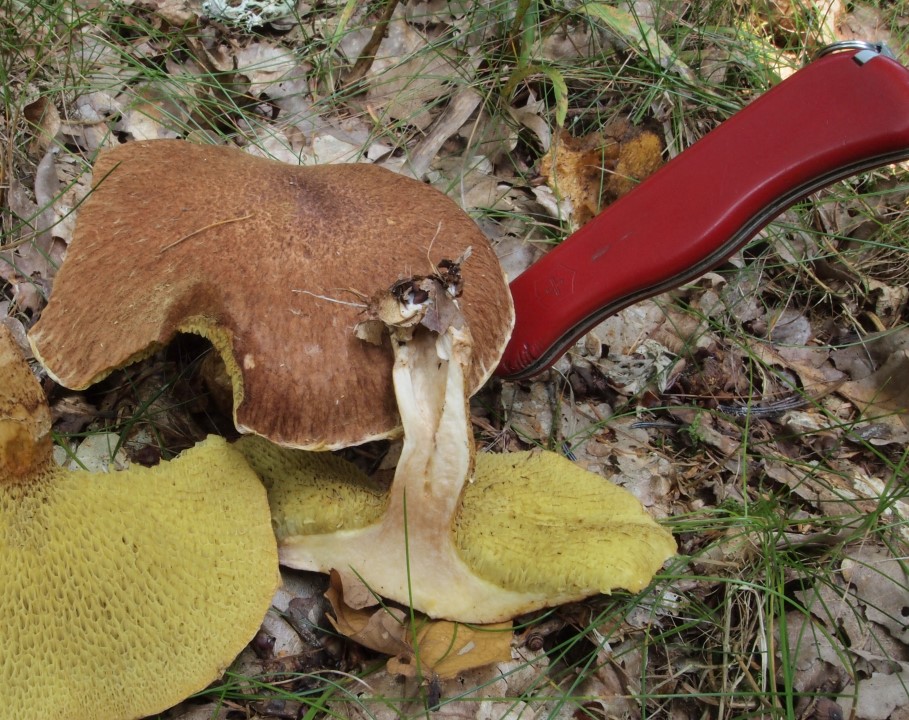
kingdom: Fungi
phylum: Basidiomycota
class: Agaricomycetes
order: Boletales
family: Suillaceae
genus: Suillus
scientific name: Suillus cavipes
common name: hulstokket slimrørhat
